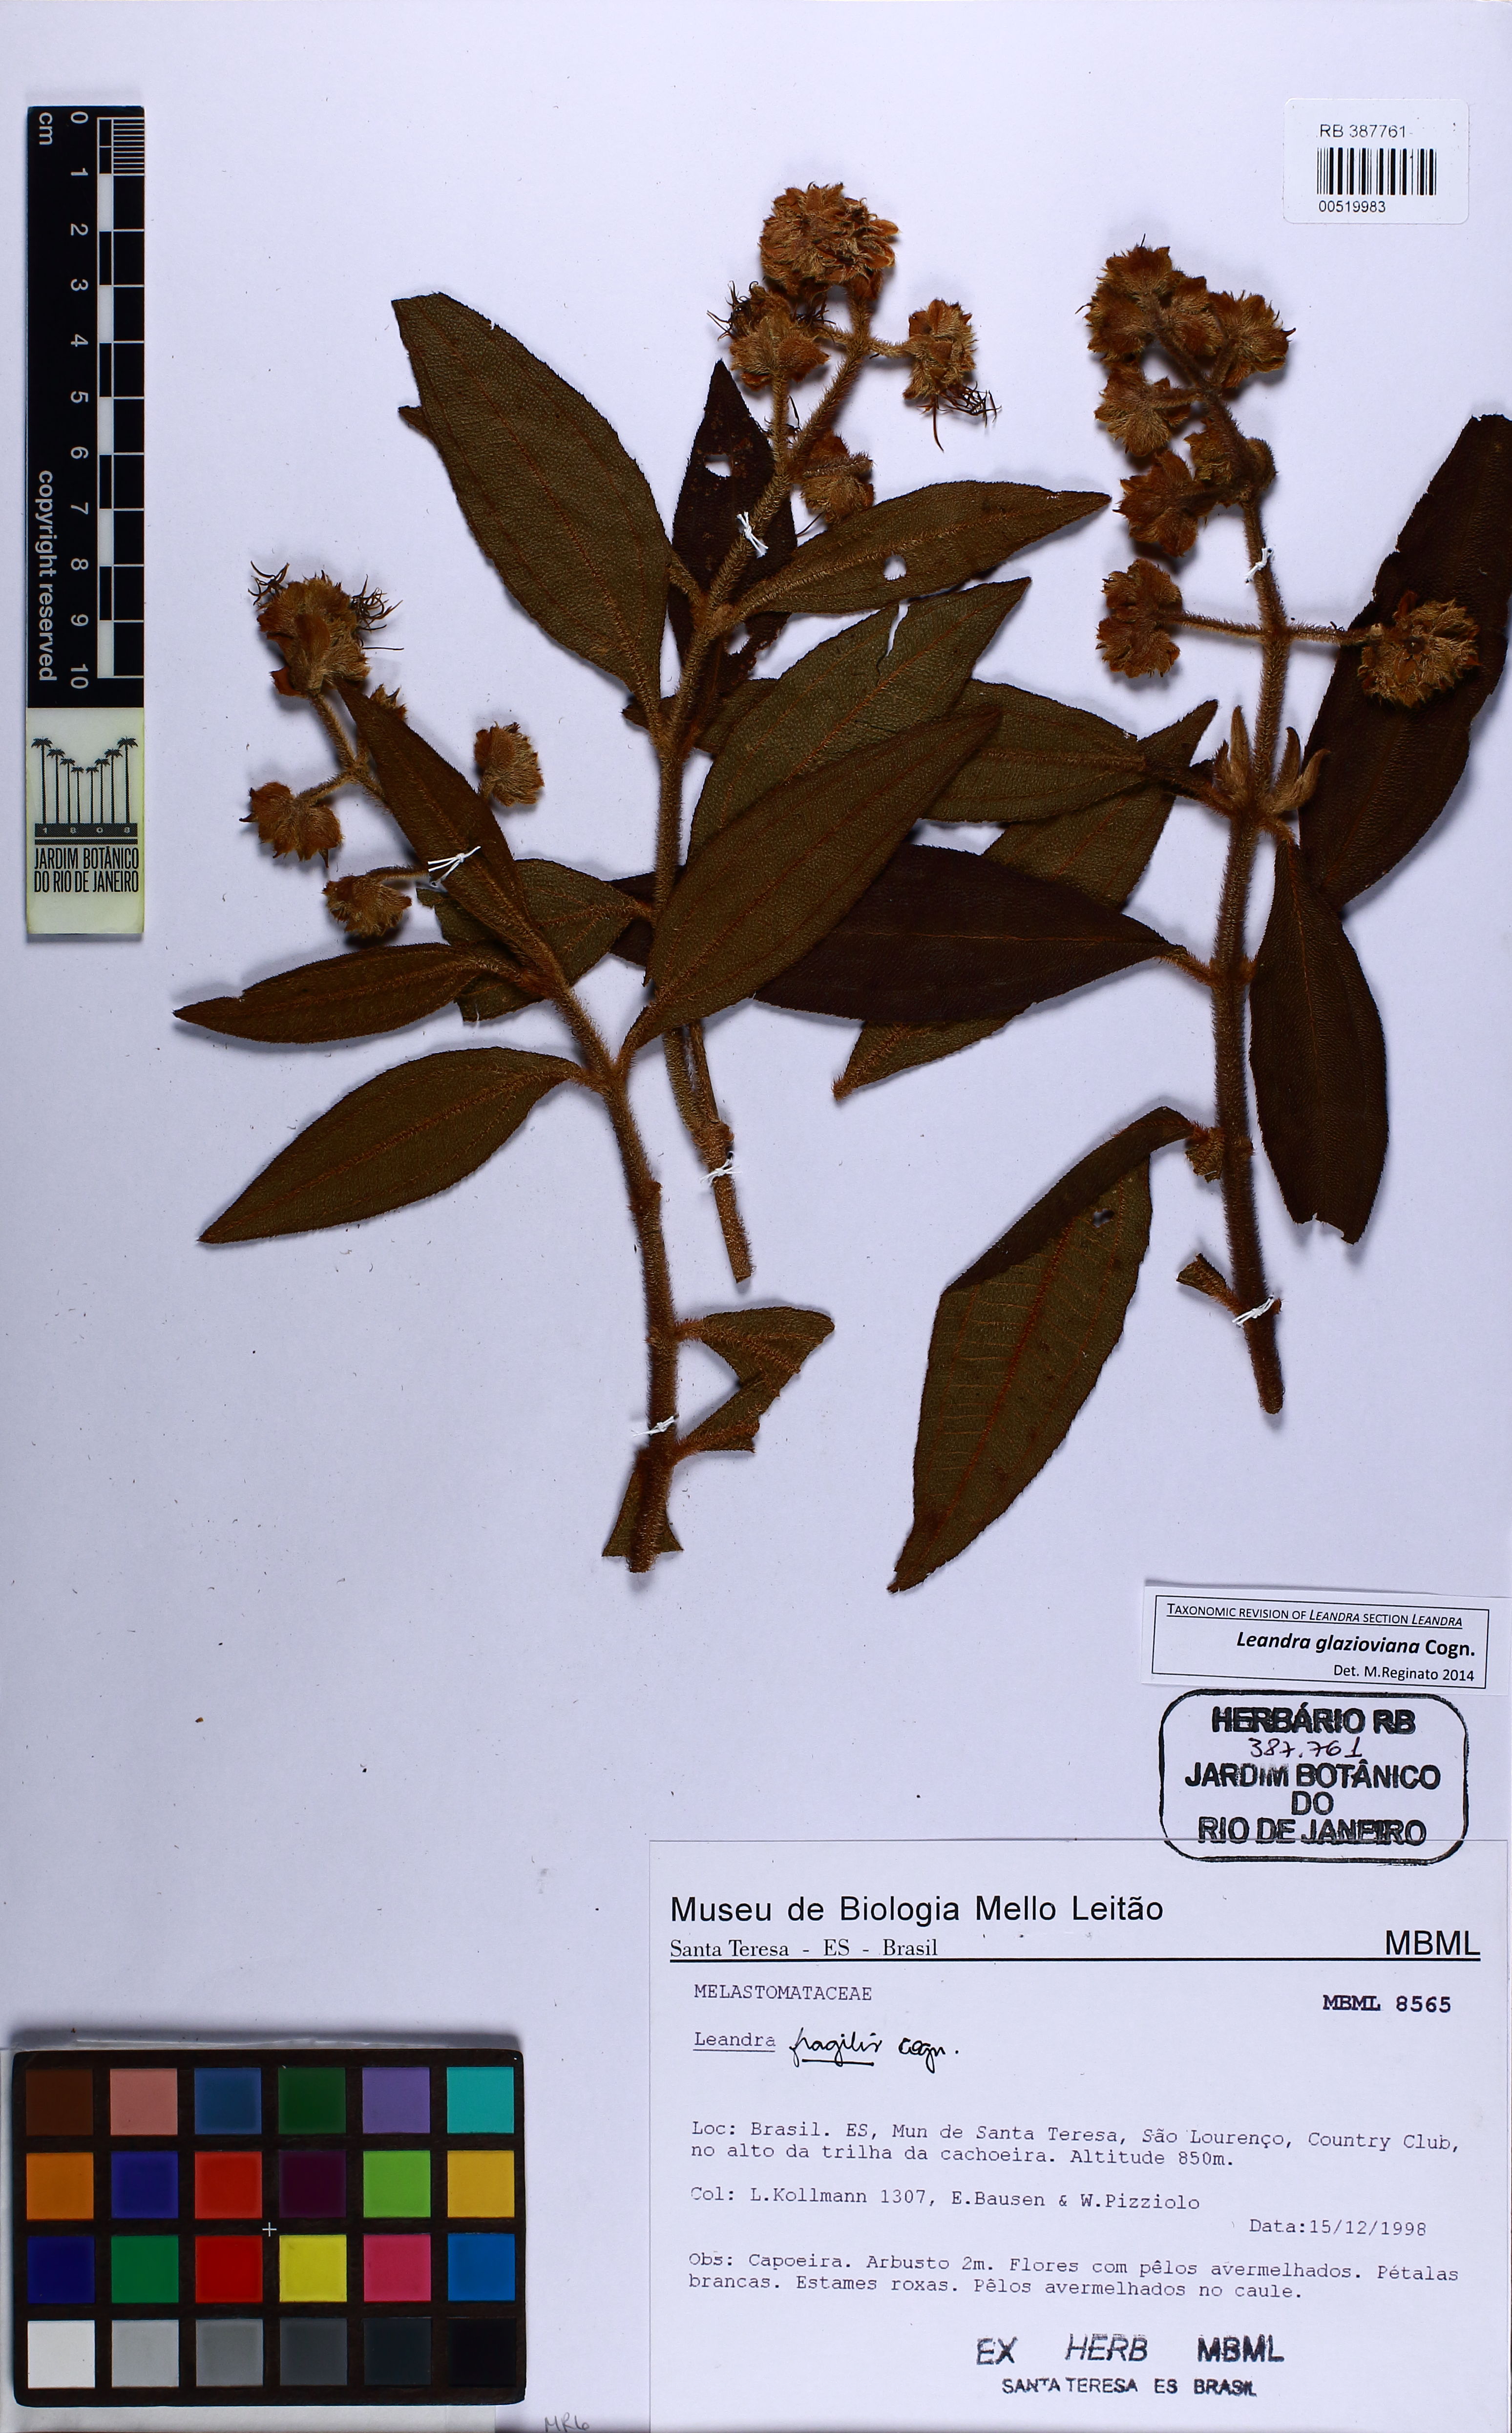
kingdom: Plantae
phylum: Tracheophyta
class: Magnoliopsida
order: Myrtales
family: Melastomataceae
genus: Miconia
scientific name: Miconia pubistyla
